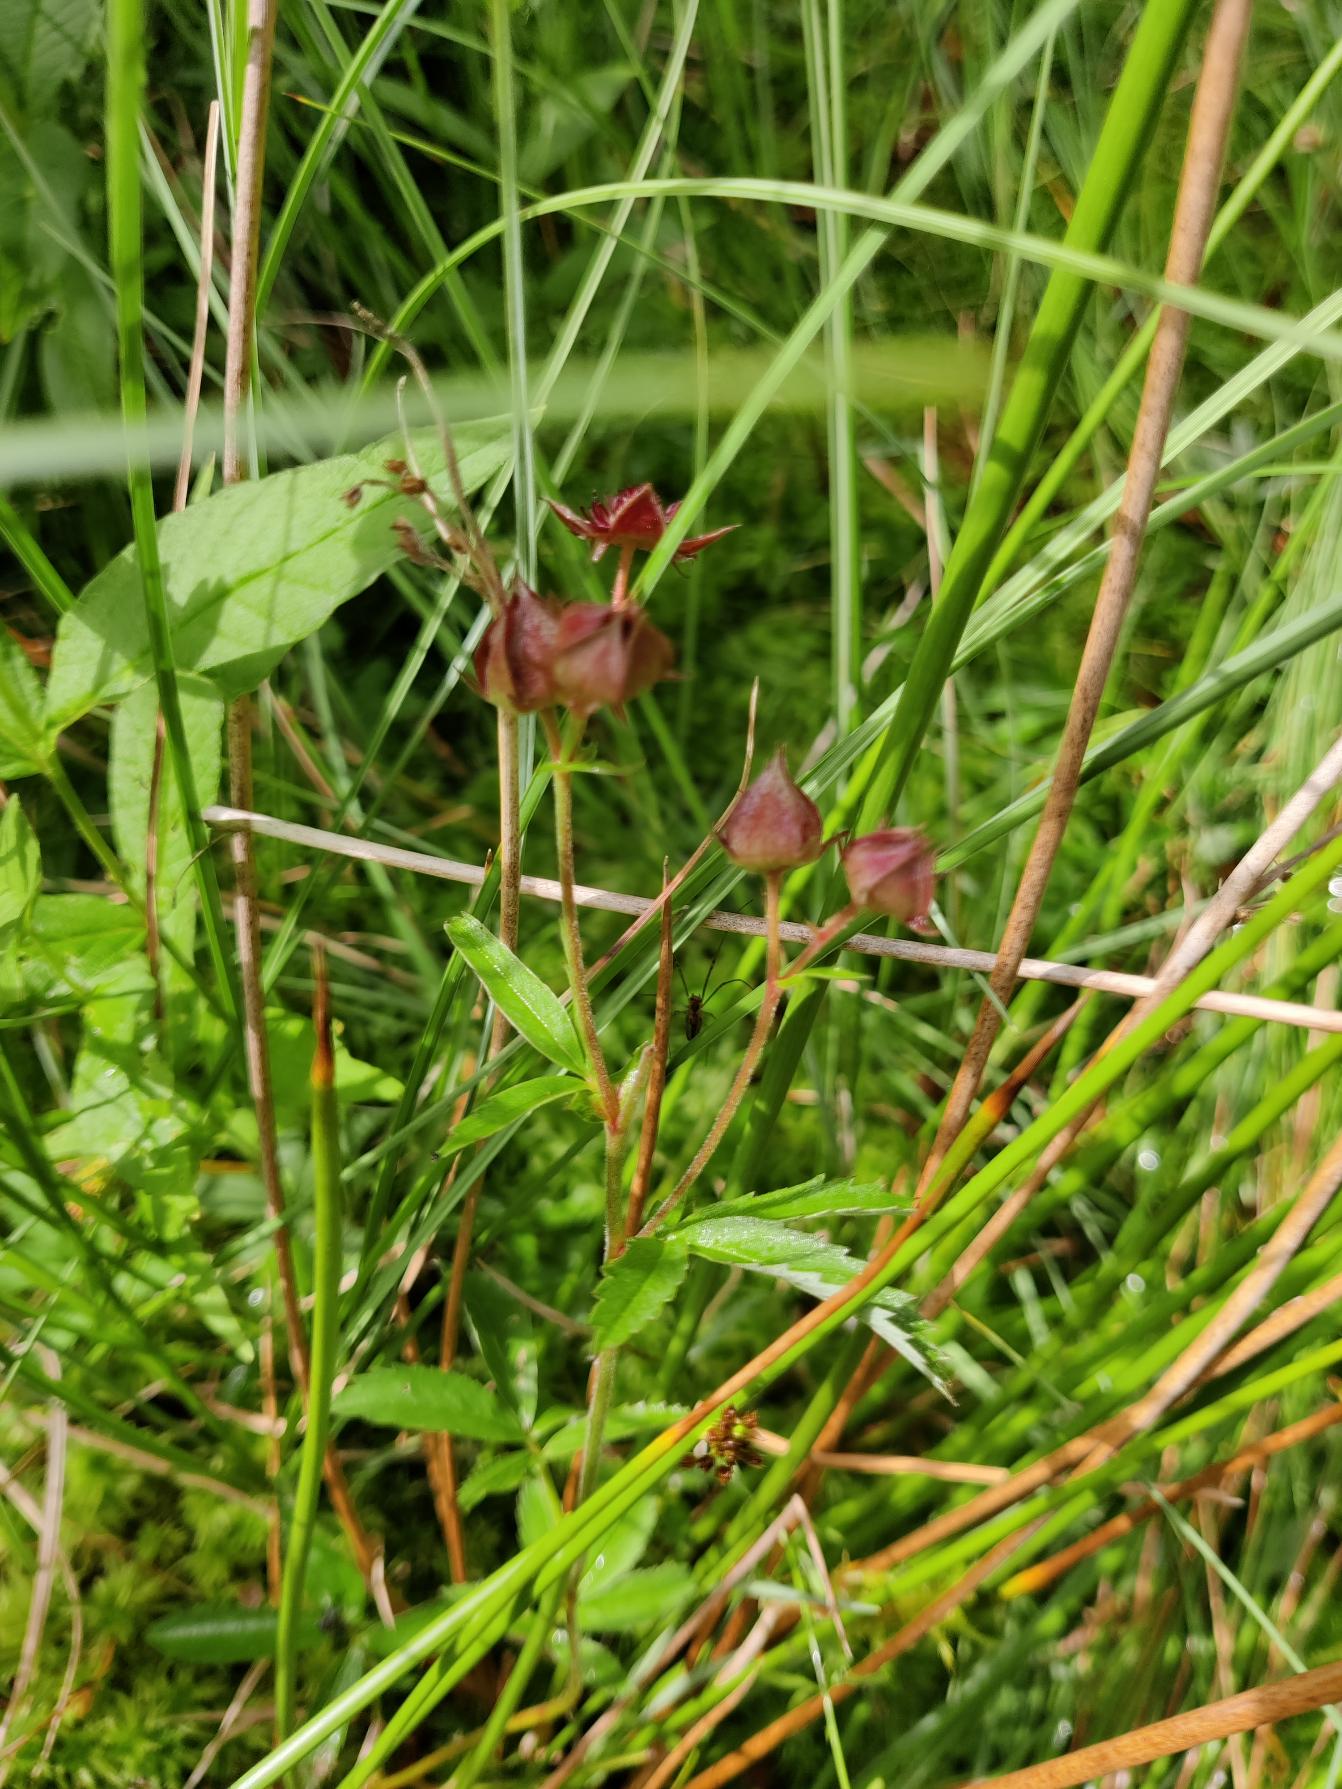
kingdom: Plantae
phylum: Tracheophyta
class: Magnoliopsida
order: Rosales
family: Rosaceae
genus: Comarum
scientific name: Comarum palustre
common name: Kragefod
